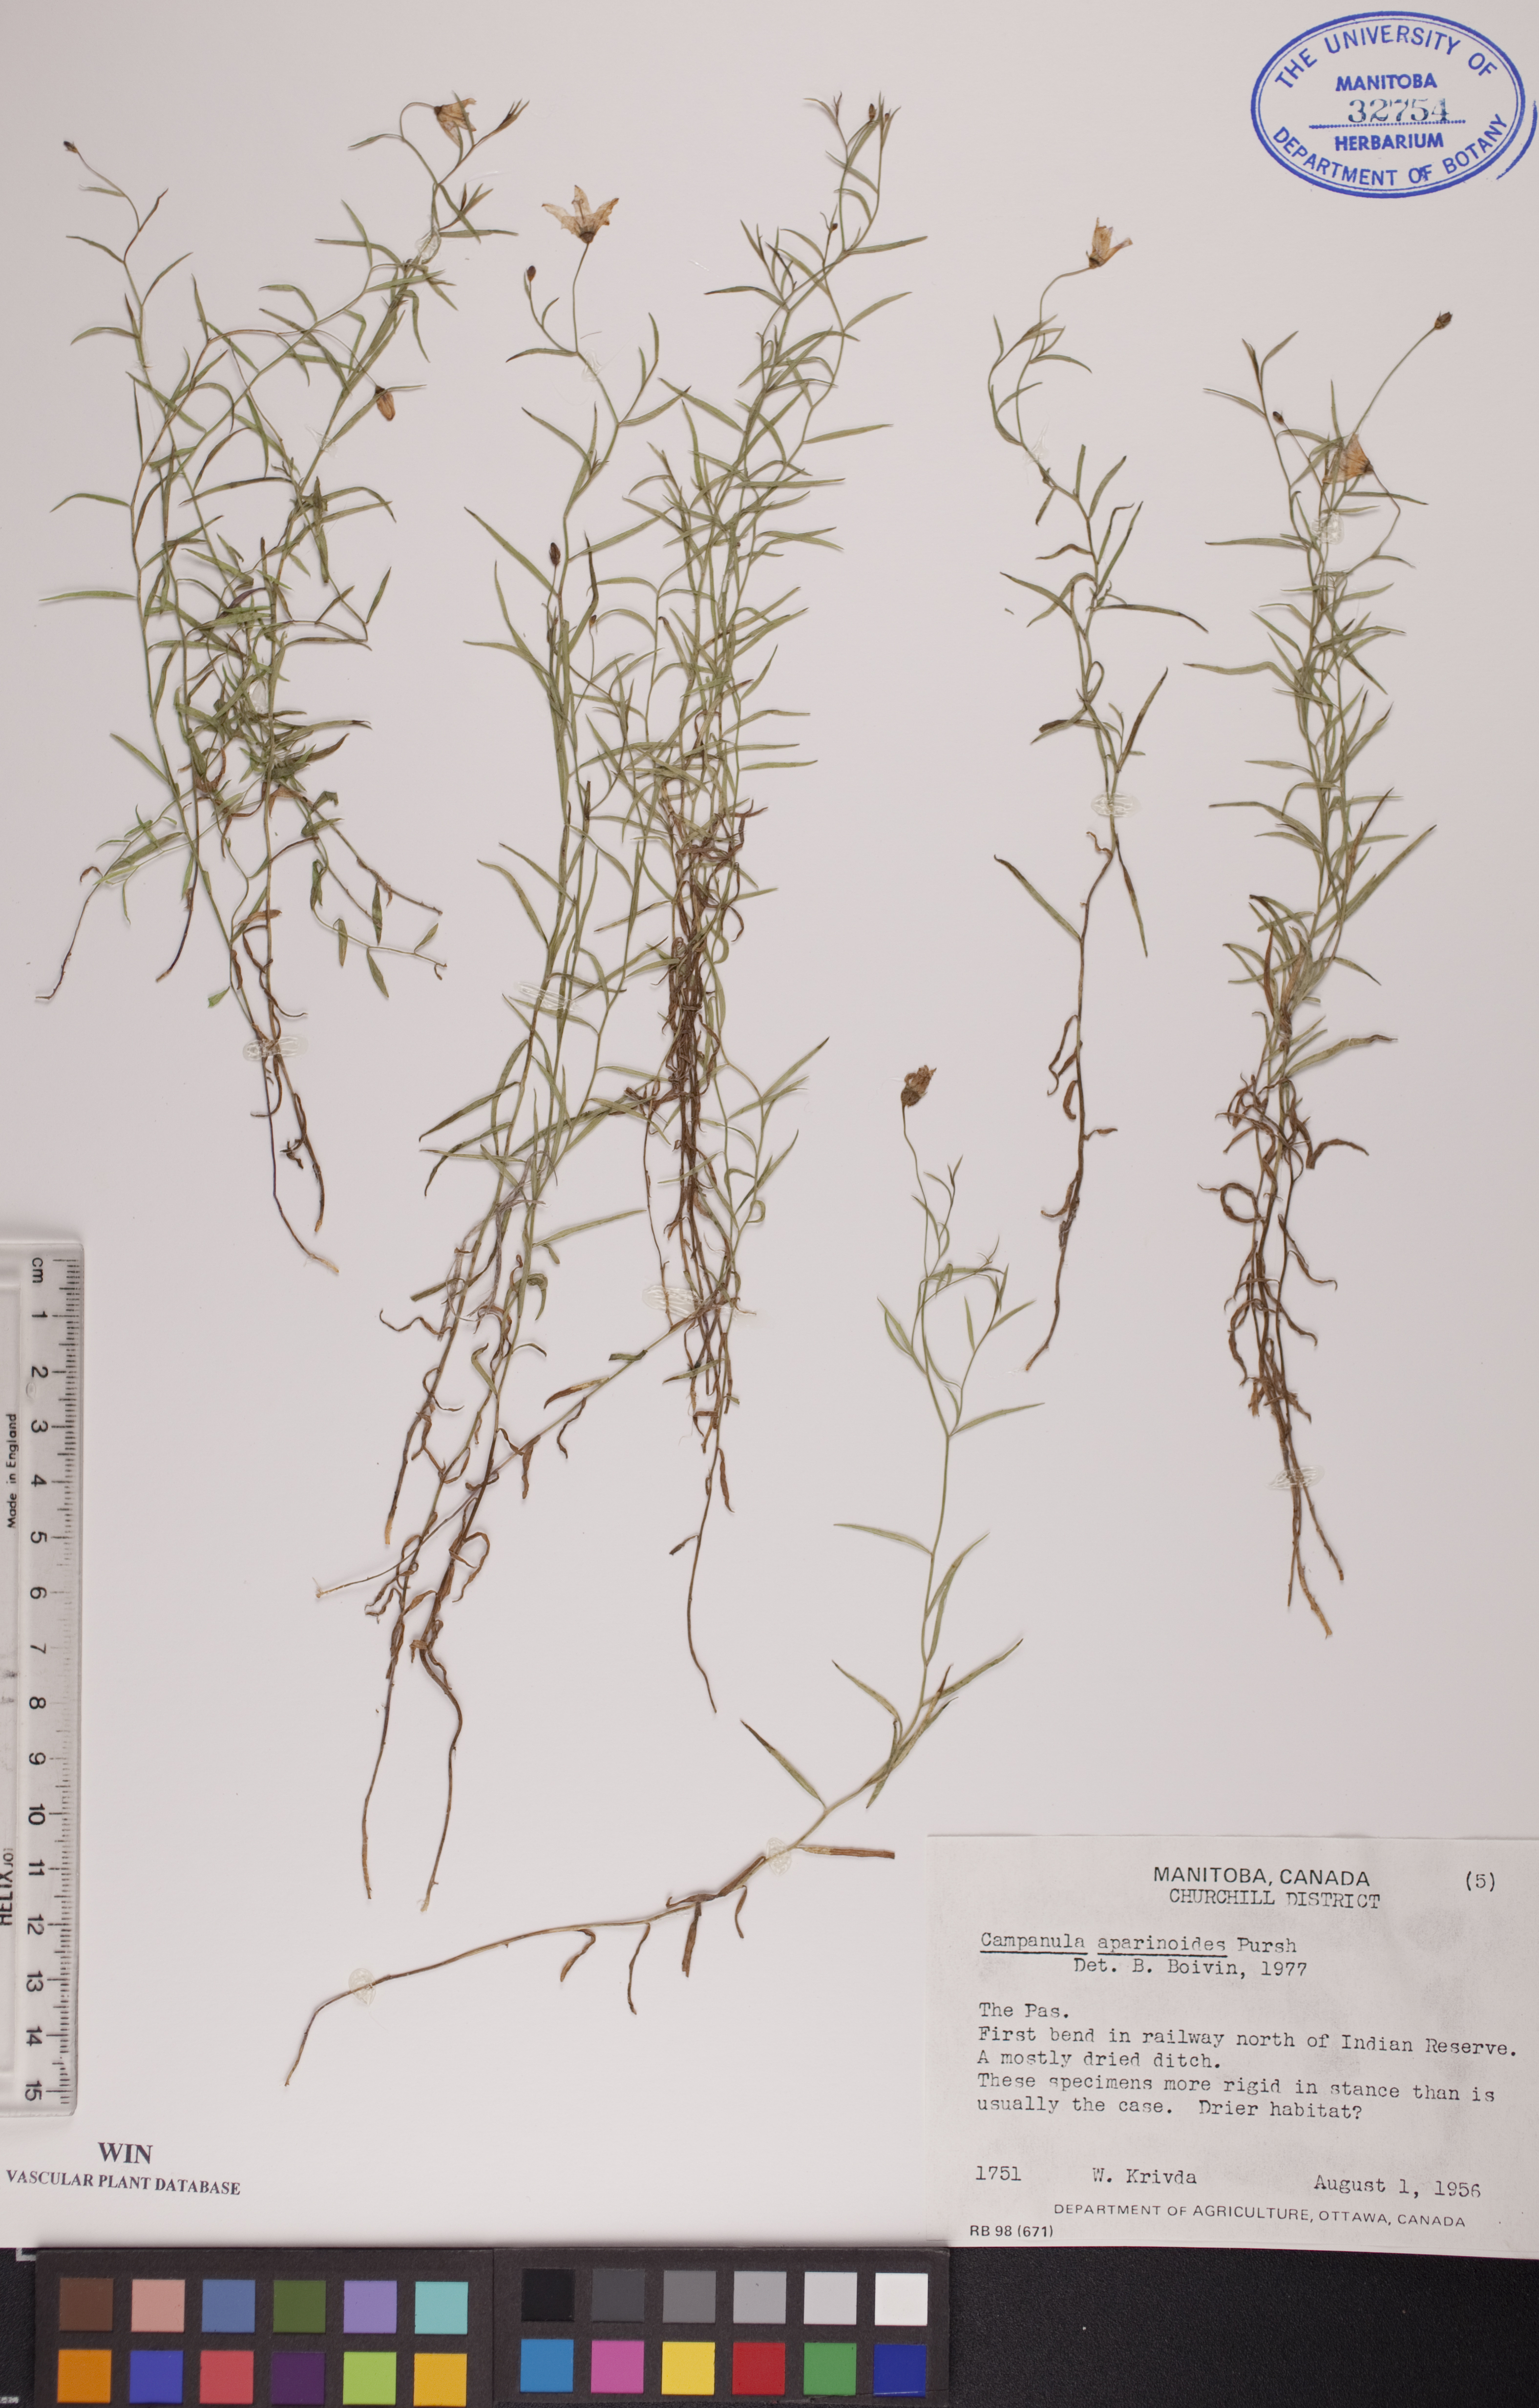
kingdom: Plantae
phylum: Tracheophyta
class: Magnoliopsida
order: Asterales
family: Campanulaceae
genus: Palustricodon
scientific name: Palustricodon aparinoides
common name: Bedstraw bellflower
